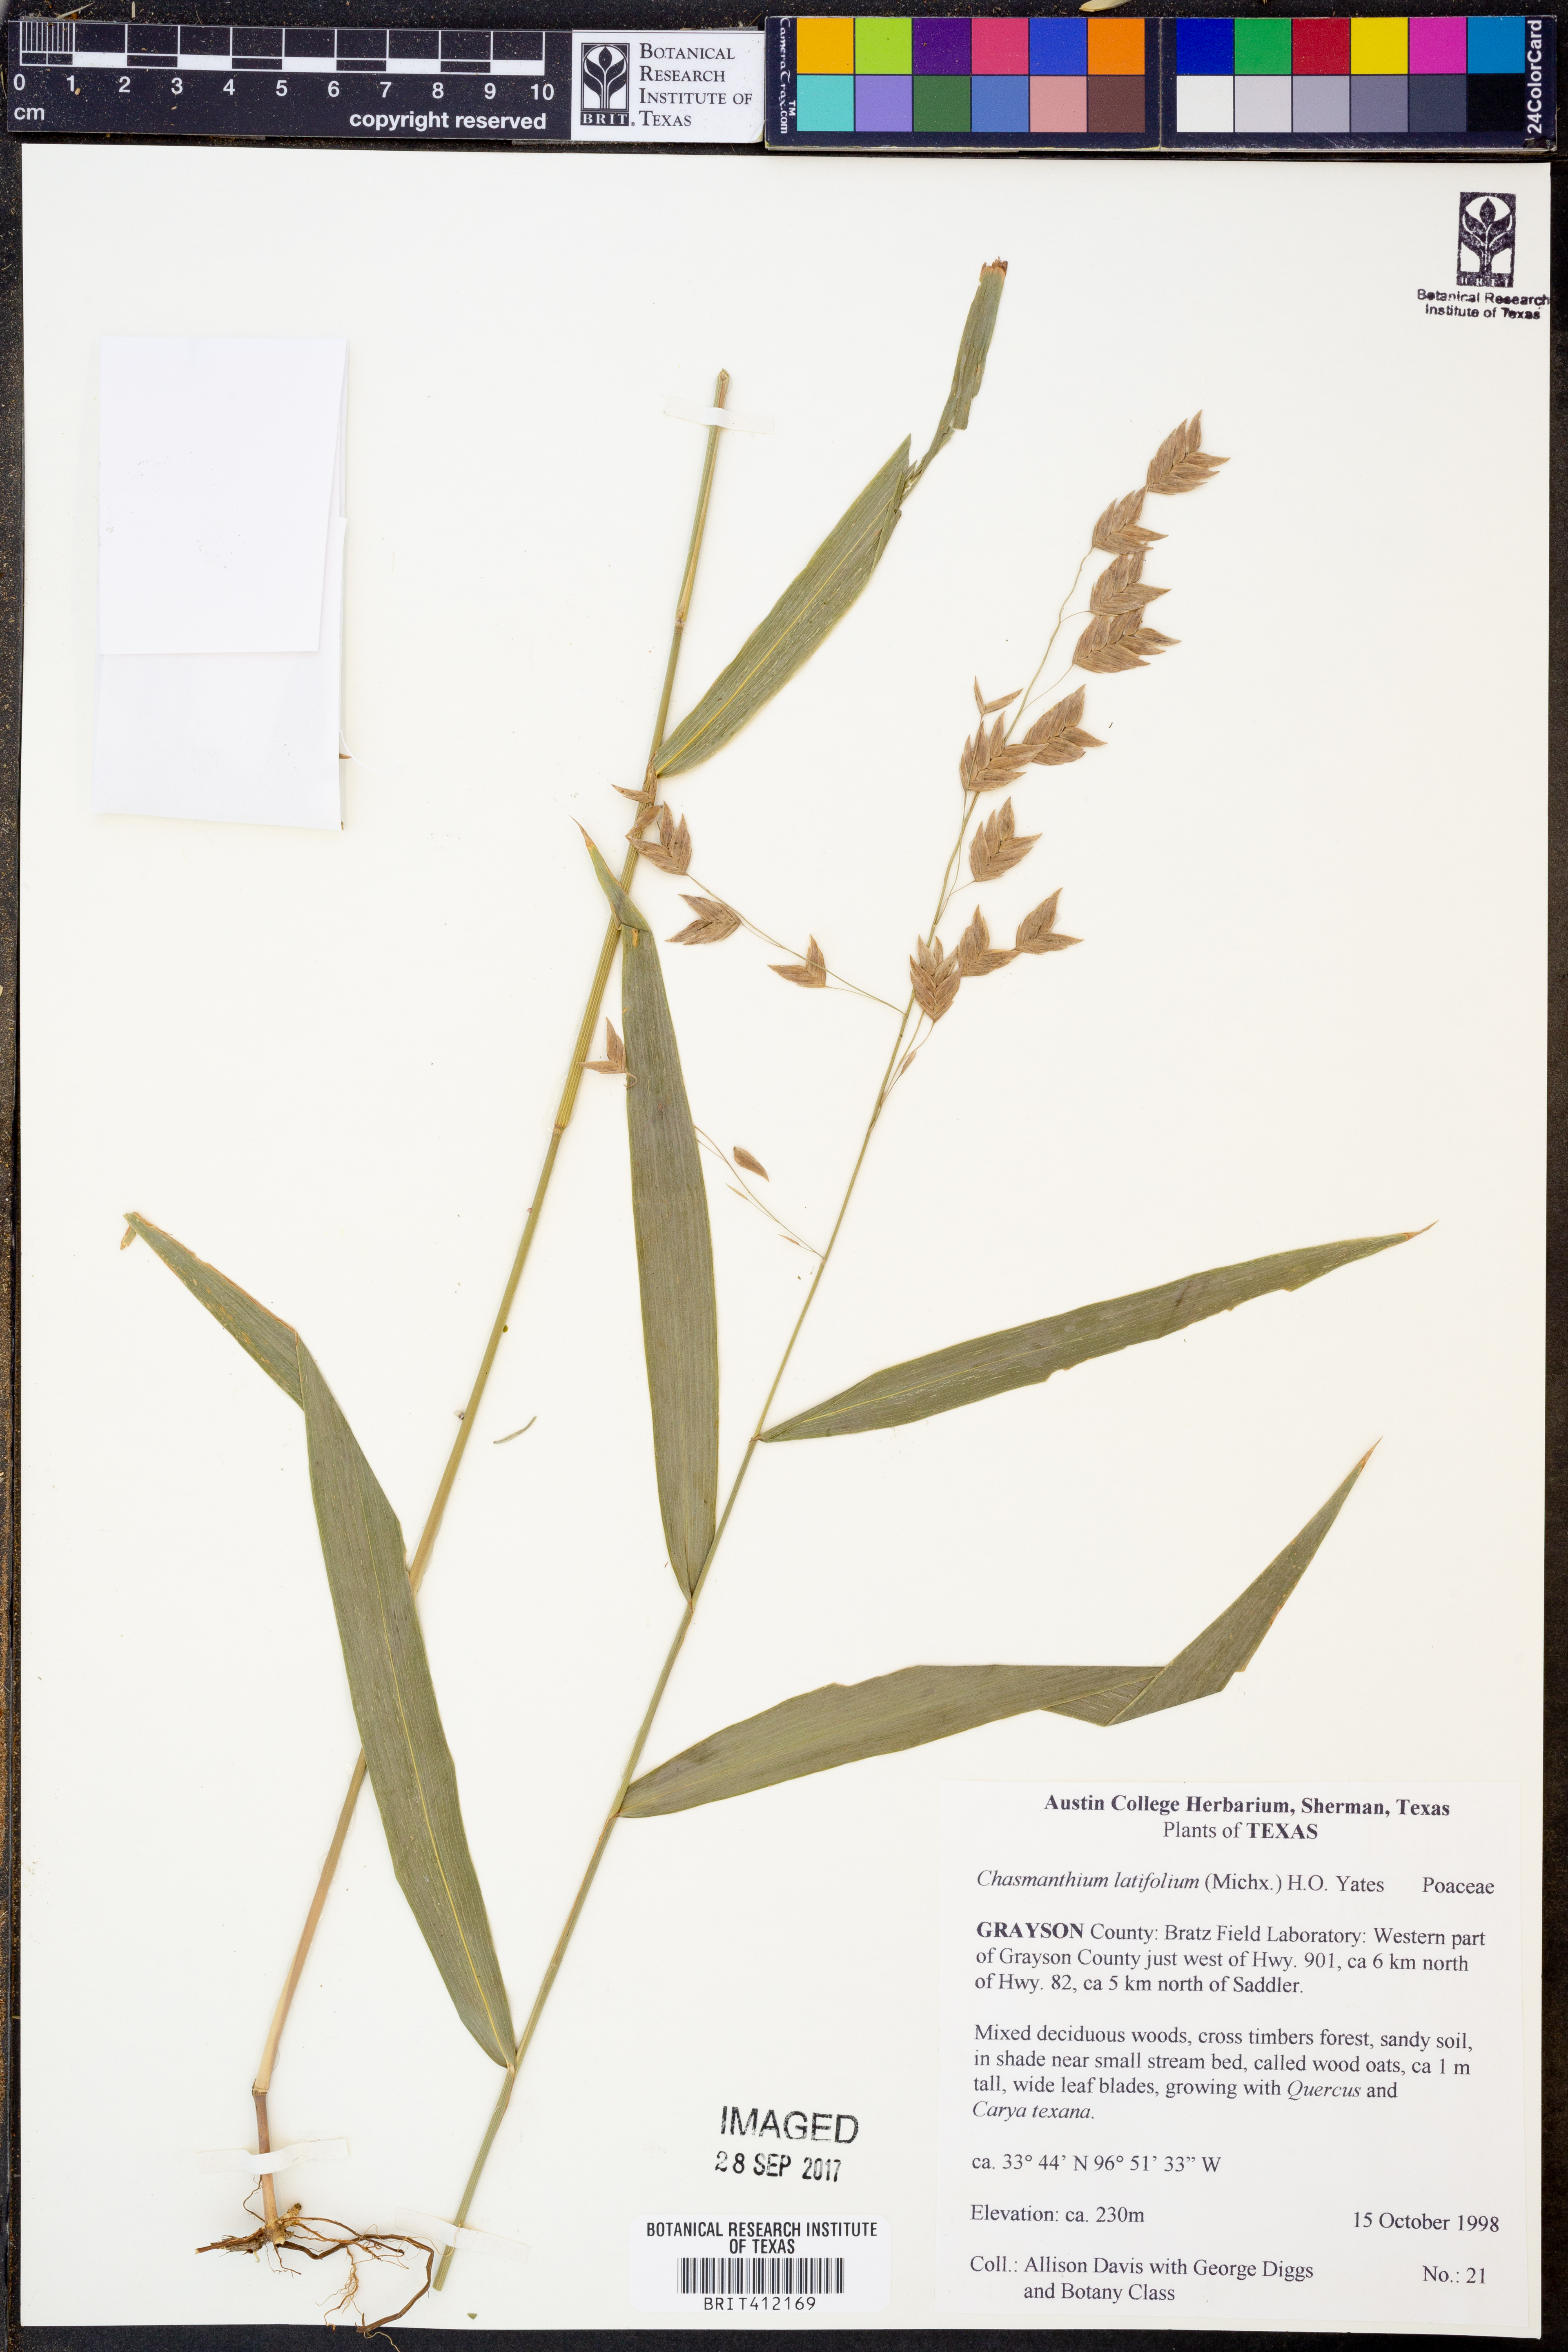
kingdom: Plantae
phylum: Tracheophyta
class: Liliopsida
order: Poales
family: Poaceae
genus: Chasmanthium
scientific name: Chasmanthium latifolium
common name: Broad-leaved chasmanthium
